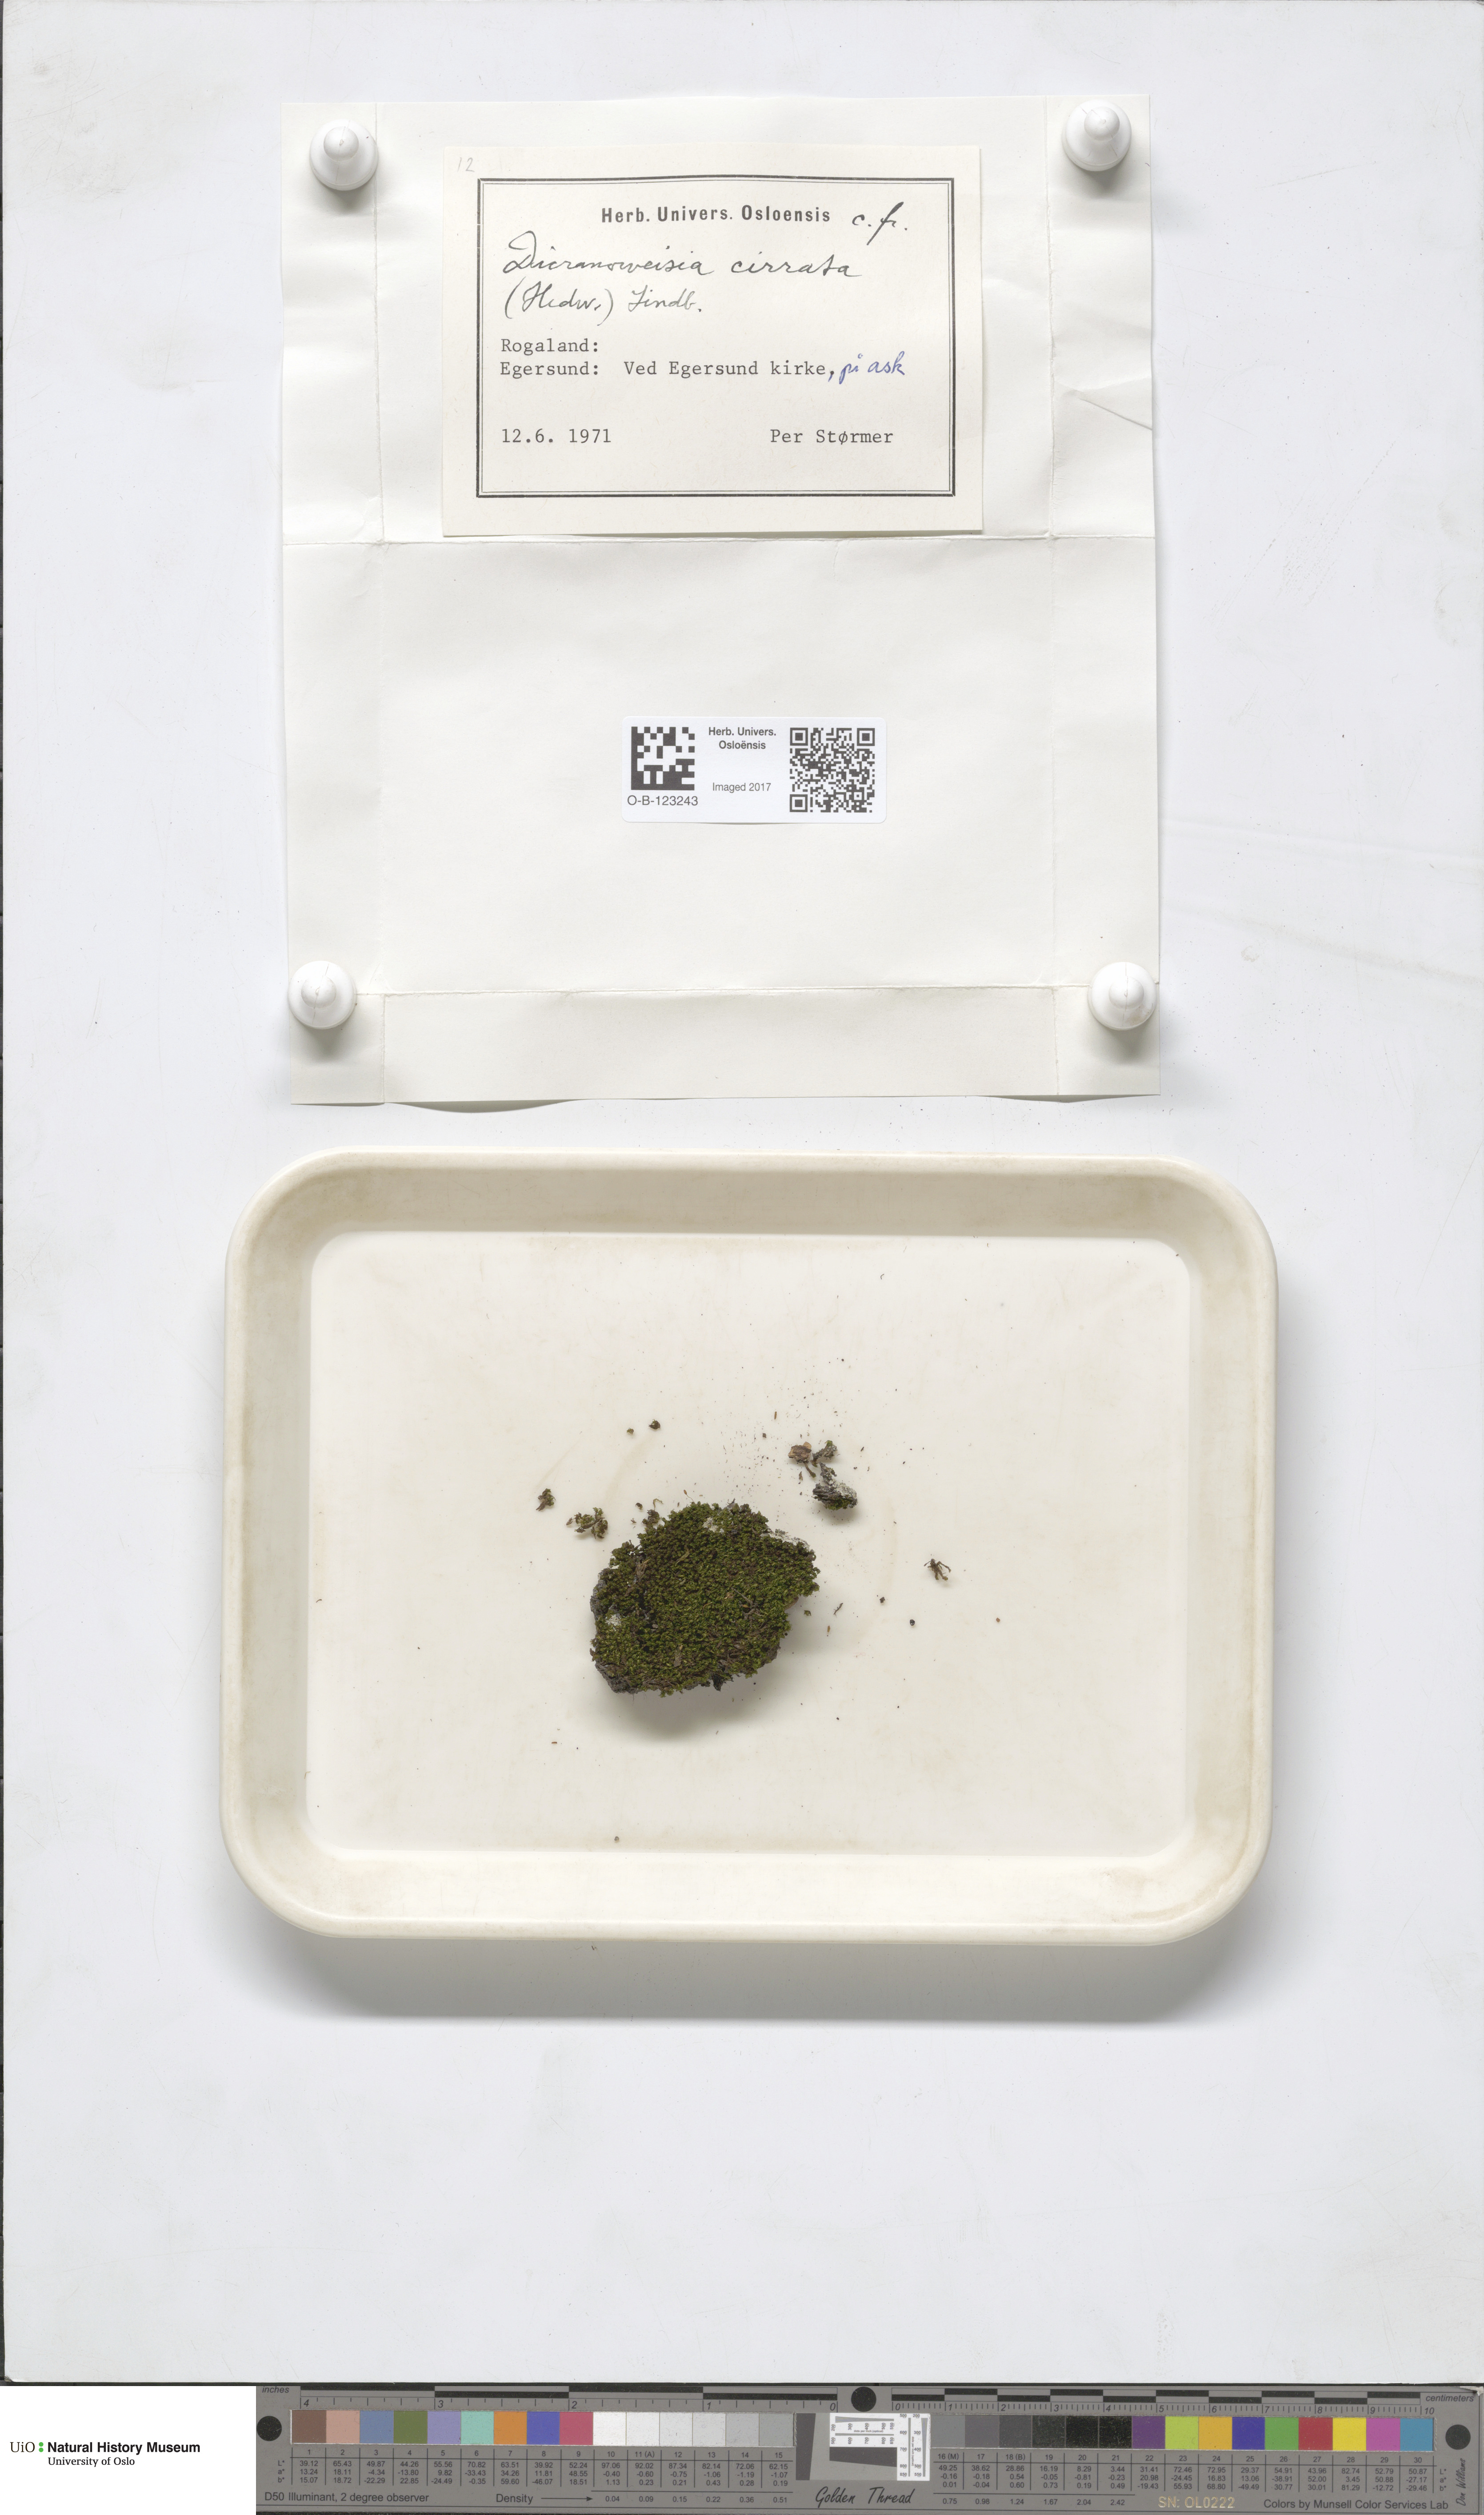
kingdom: Plantae
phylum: Bryophyta
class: Bryopsida
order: Dicranales
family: Rhabdoweisiaceae
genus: Dicranoweisia
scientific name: Dicranoweisia cirrata
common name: Common pincushion
